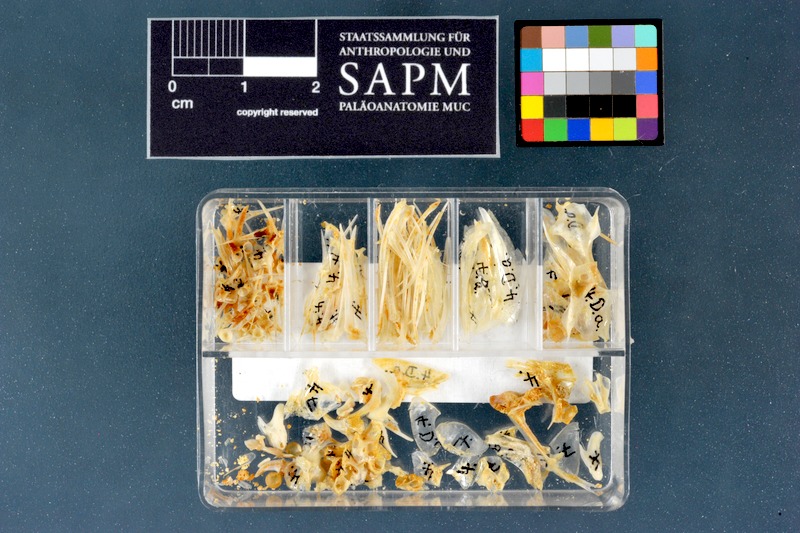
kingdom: Animalia
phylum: Chordata
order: Perciformes
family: Sparidae
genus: Diplodus
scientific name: Diplodus annularis
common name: Annular seabream
